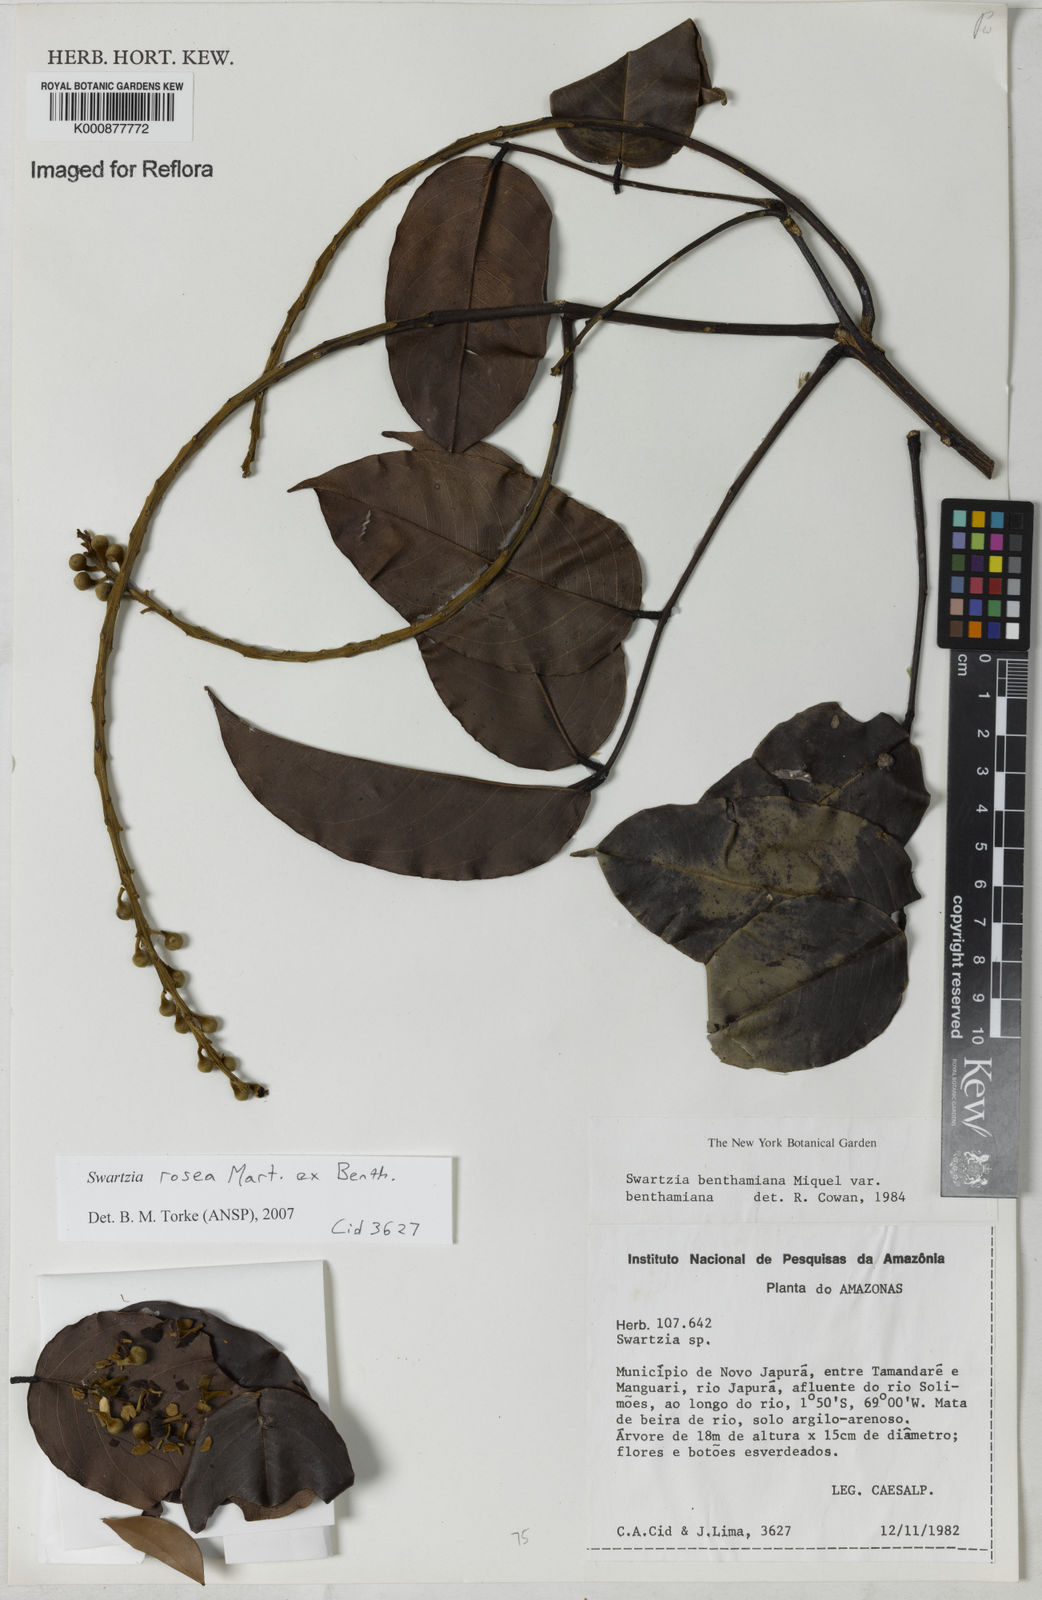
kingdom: Plantae
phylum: Tracheophyta
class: Magnoliopsida
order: Fabales
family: Fabaceae
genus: Swartzia
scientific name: Swartzia rosea
